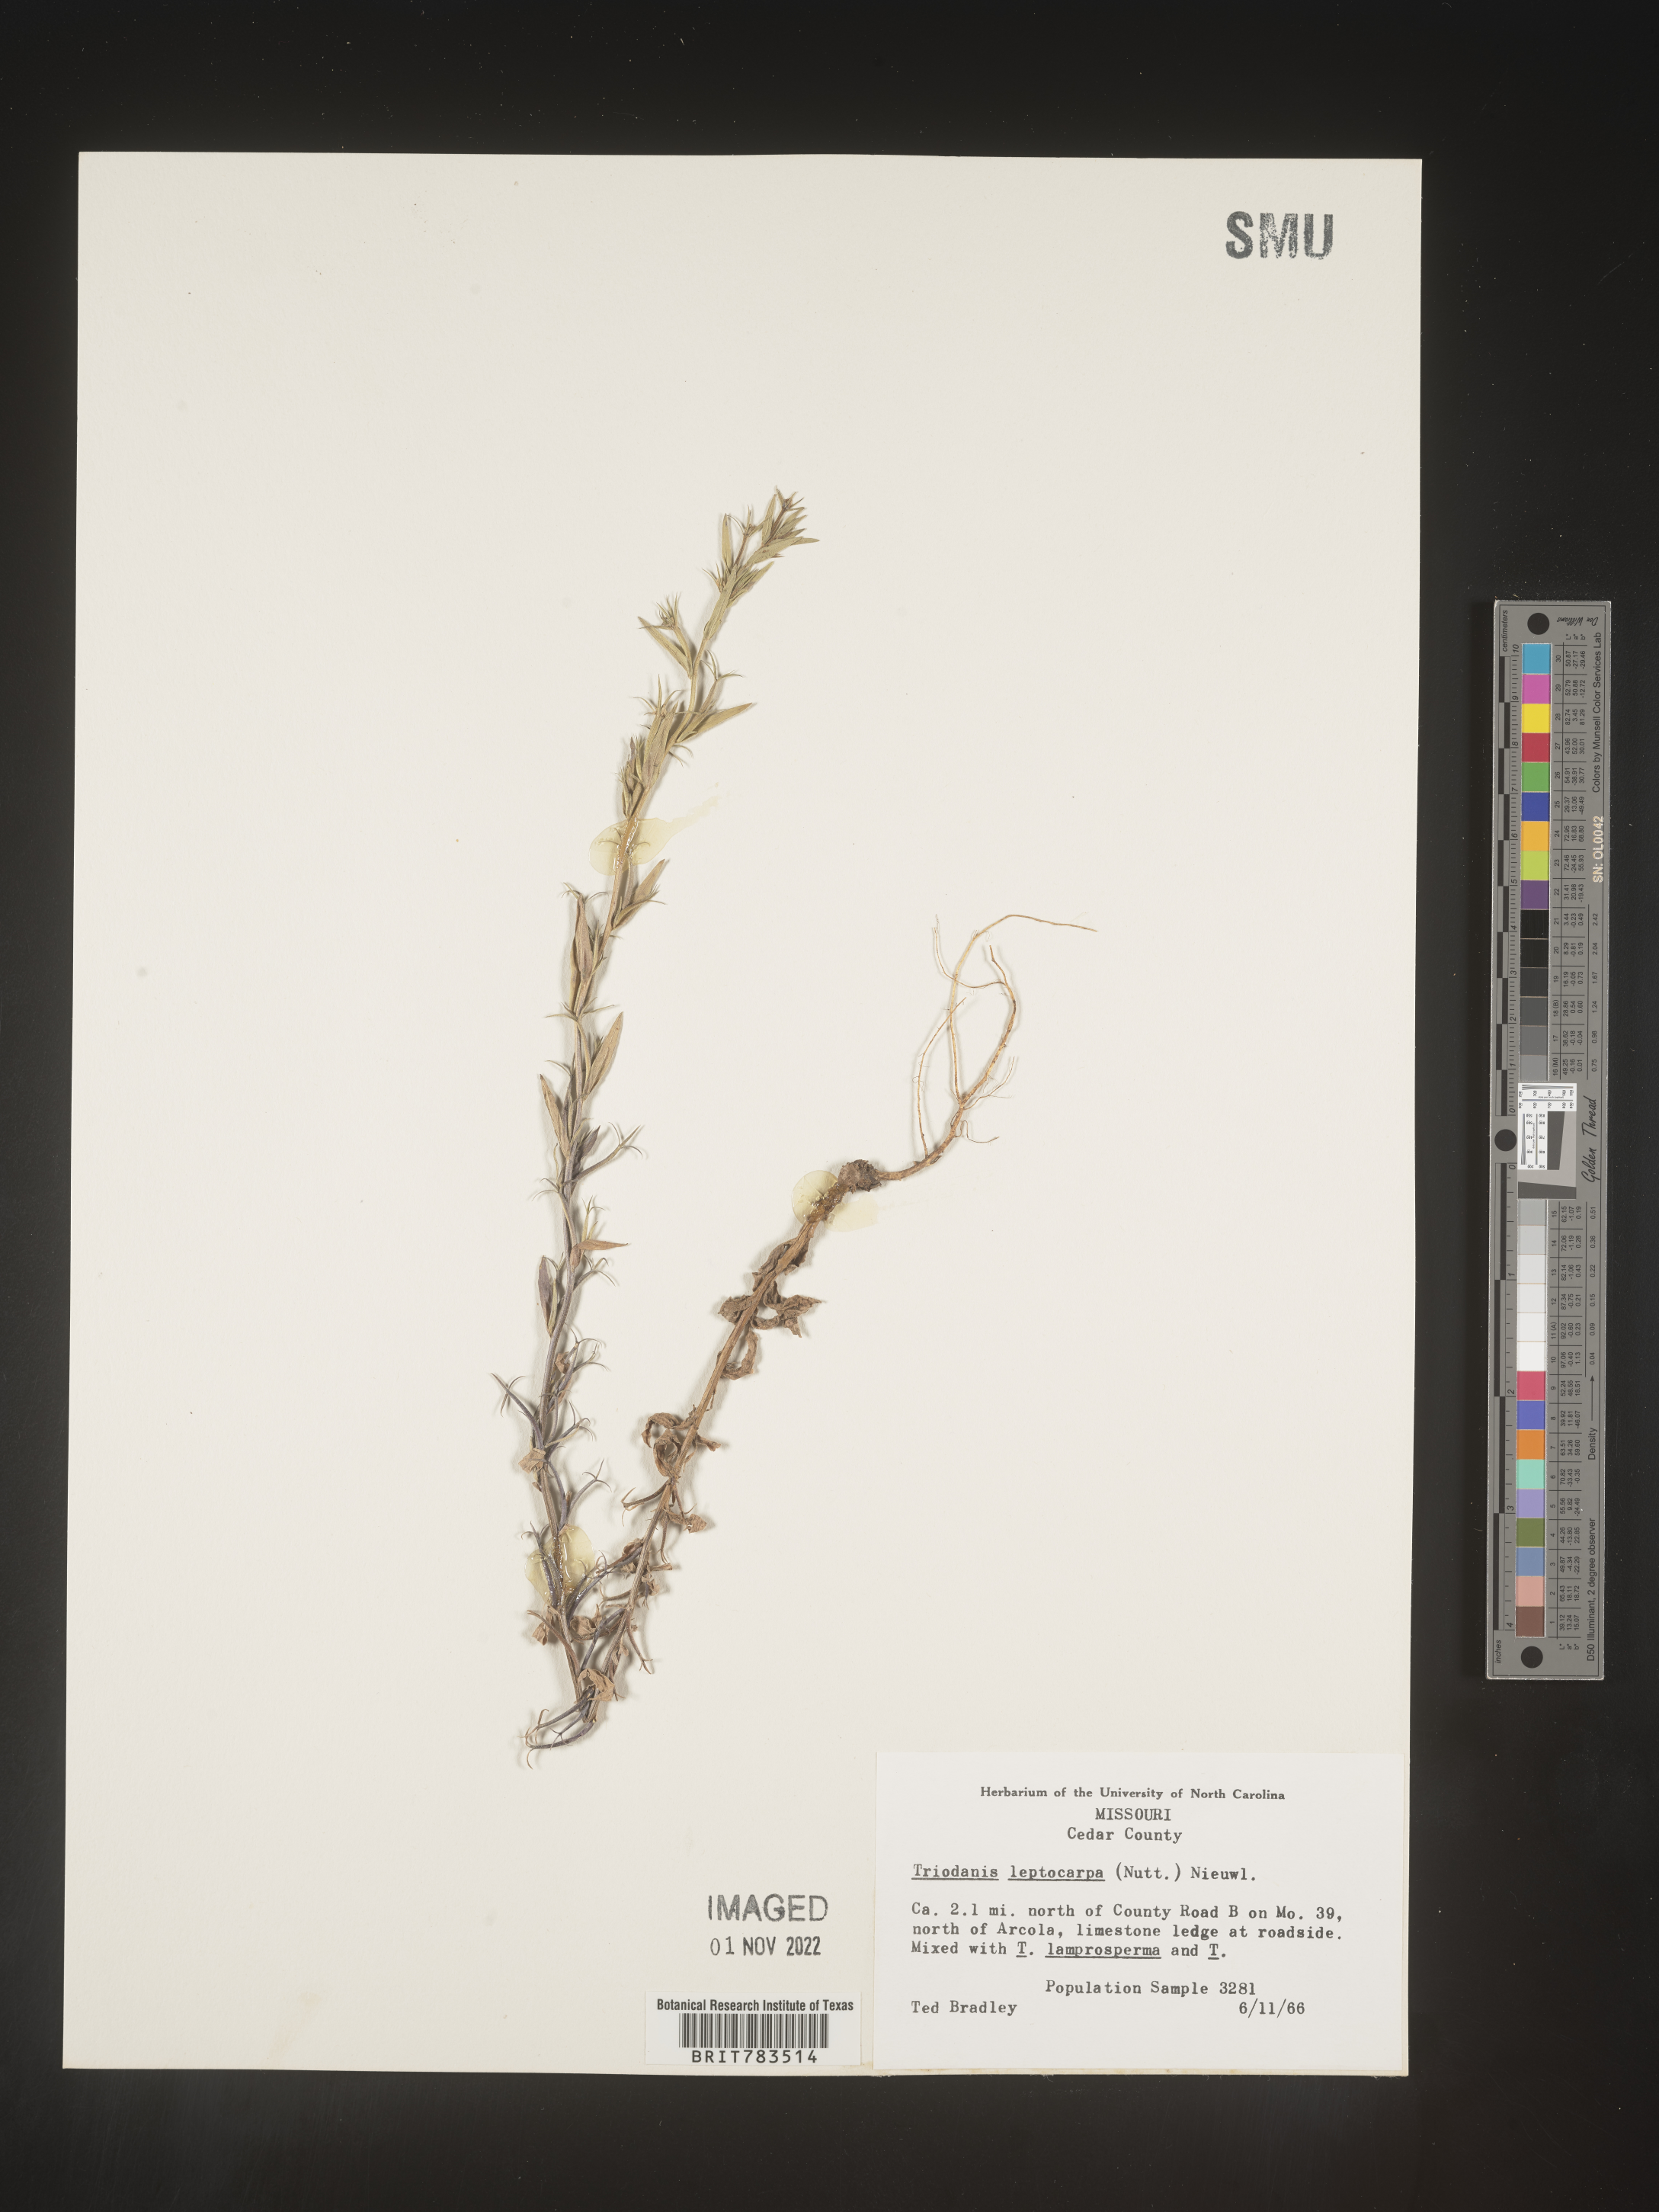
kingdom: Plantae
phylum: Tracheophyta
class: Magnoliopsida
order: Asterales
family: Campanulaceae
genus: Triodanis
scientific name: Triodanis leptocarpa
